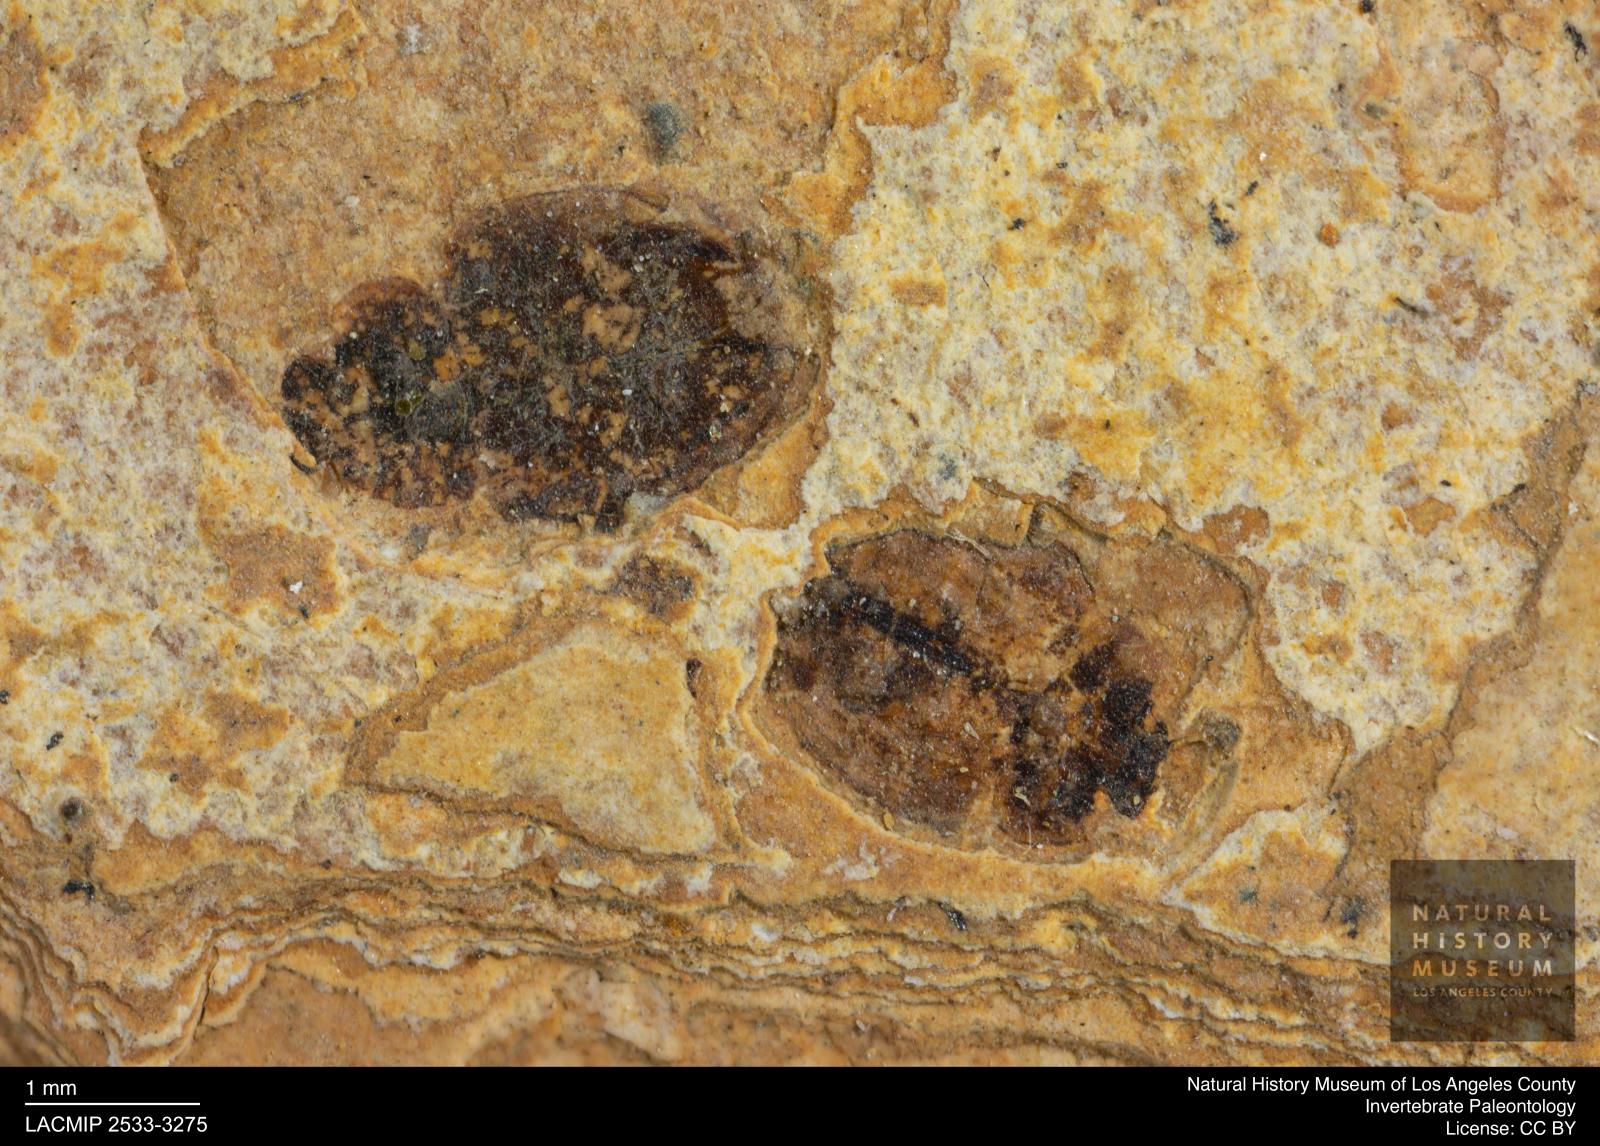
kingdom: Animalia
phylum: Arthropoda
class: Insecta
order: Coleoptera
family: Hydrophilidae
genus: Paracymus
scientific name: Paracymus excitatus
